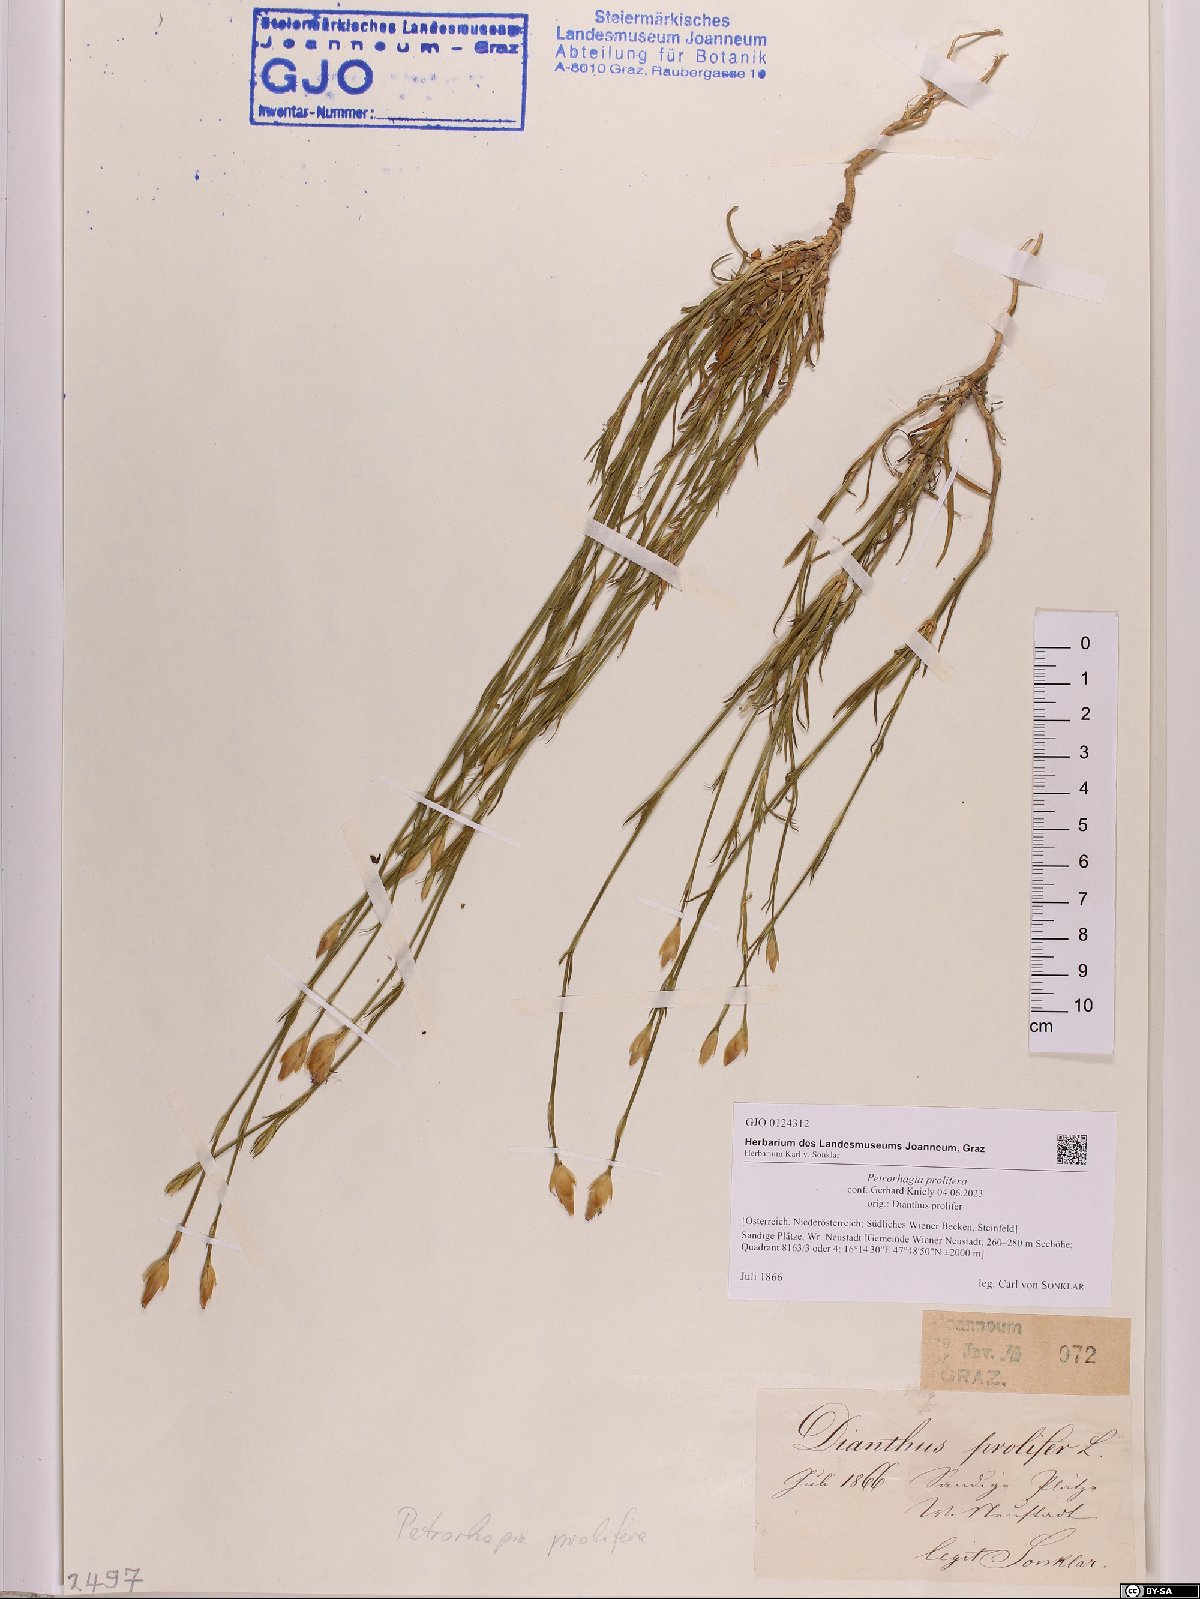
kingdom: Plantae
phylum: Tracheophyta
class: Magnoliopsida
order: Caryophyllales
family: Caryophyllaceae
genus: Petrorhagia
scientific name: Petrorhagia prolifera
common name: Proliferous pink
